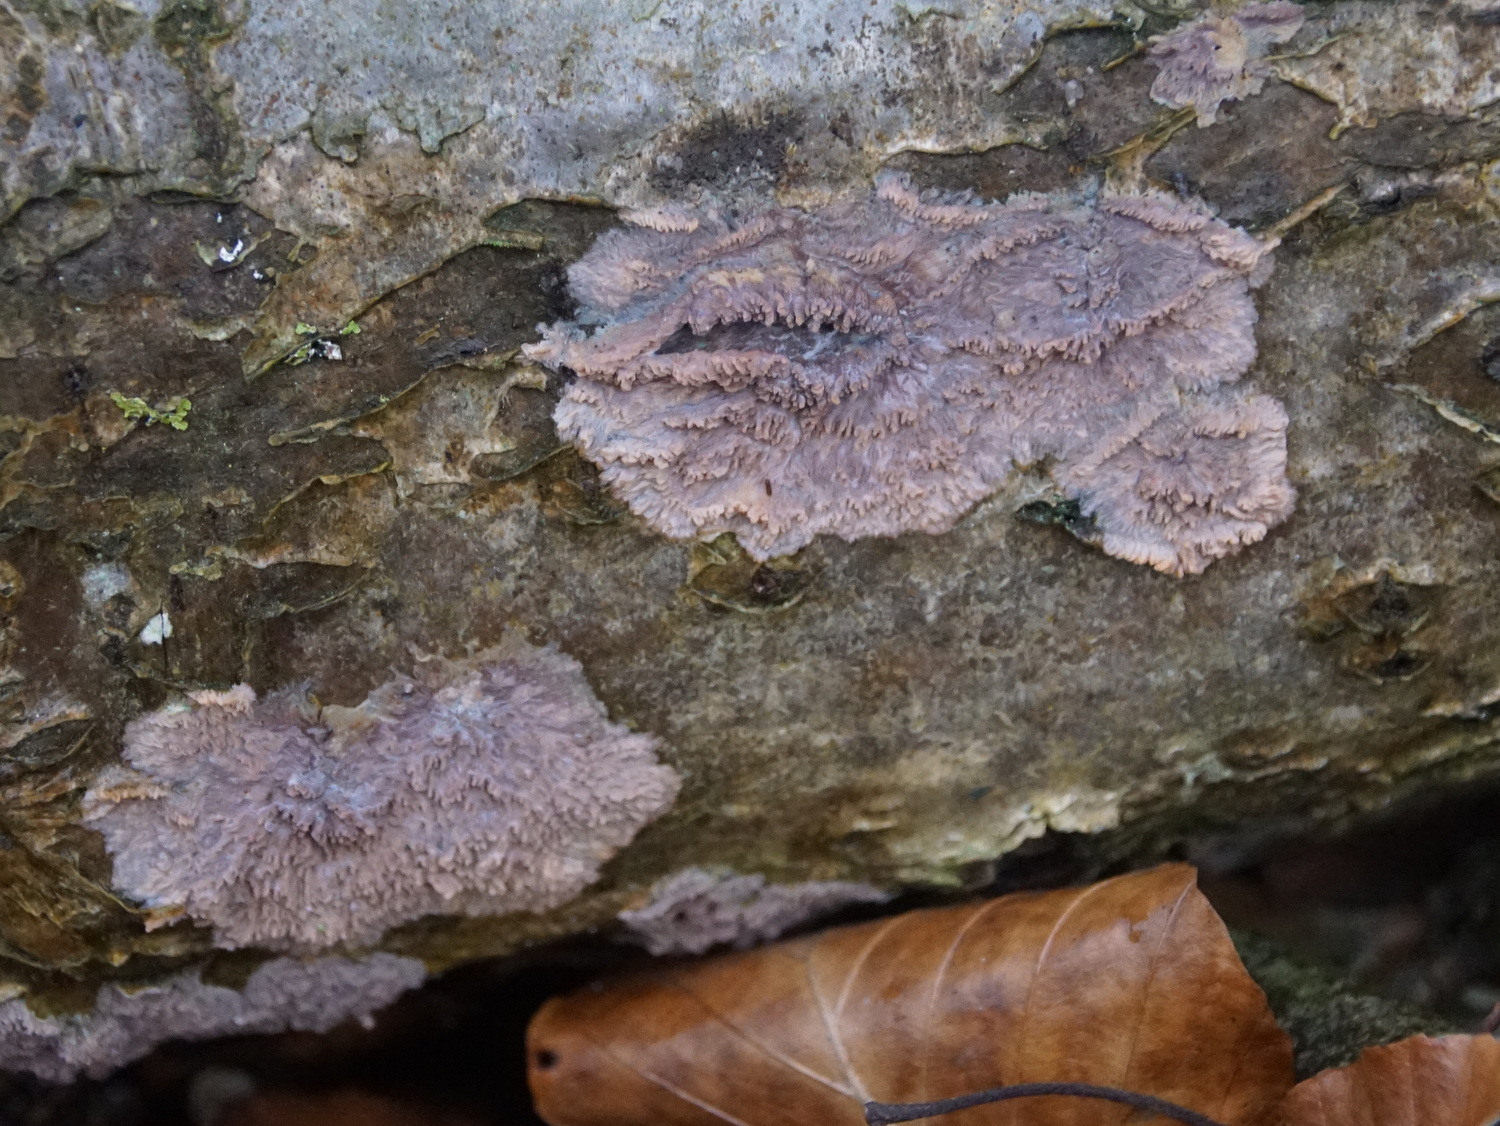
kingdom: Fungi
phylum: Basidiomycota
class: Agaricomycetes
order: Polyporales
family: Meruliaceae
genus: Phlebia
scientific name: Phlebia radiata
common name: stråle-åresvamp
